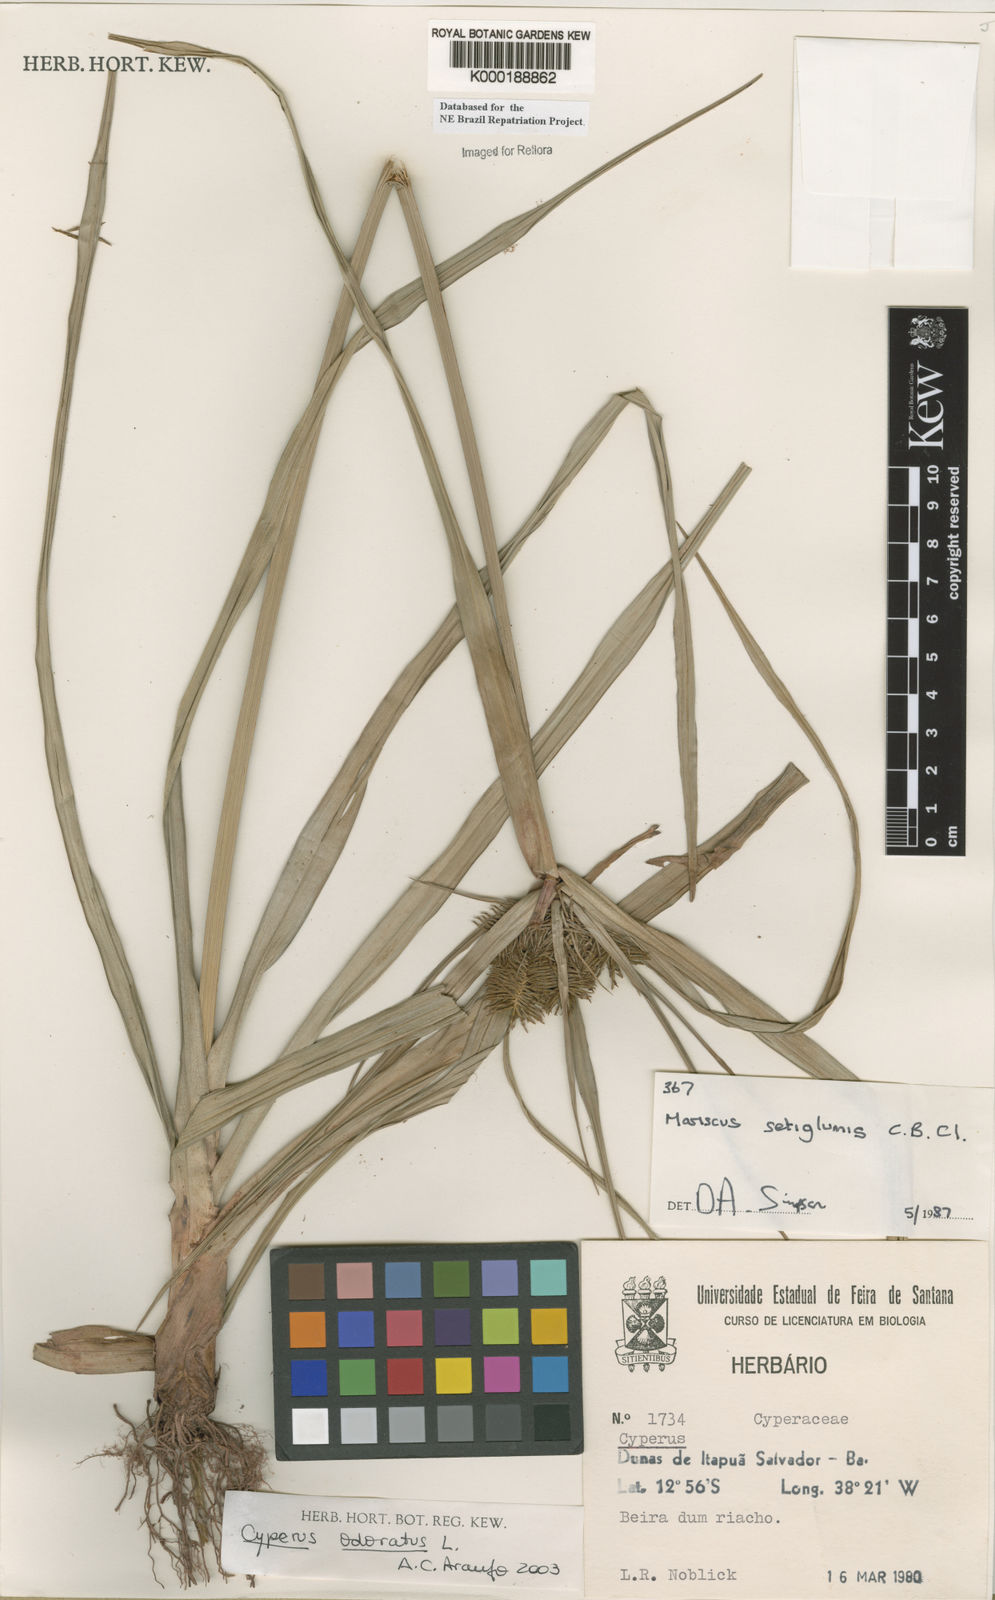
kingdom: Plantae
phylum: Tracheophyta
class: Liliopsida
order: Poales
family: Cyperaceae
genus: Cyperus
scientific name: Cyperus odoratus
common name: Fragrant flatsedge
